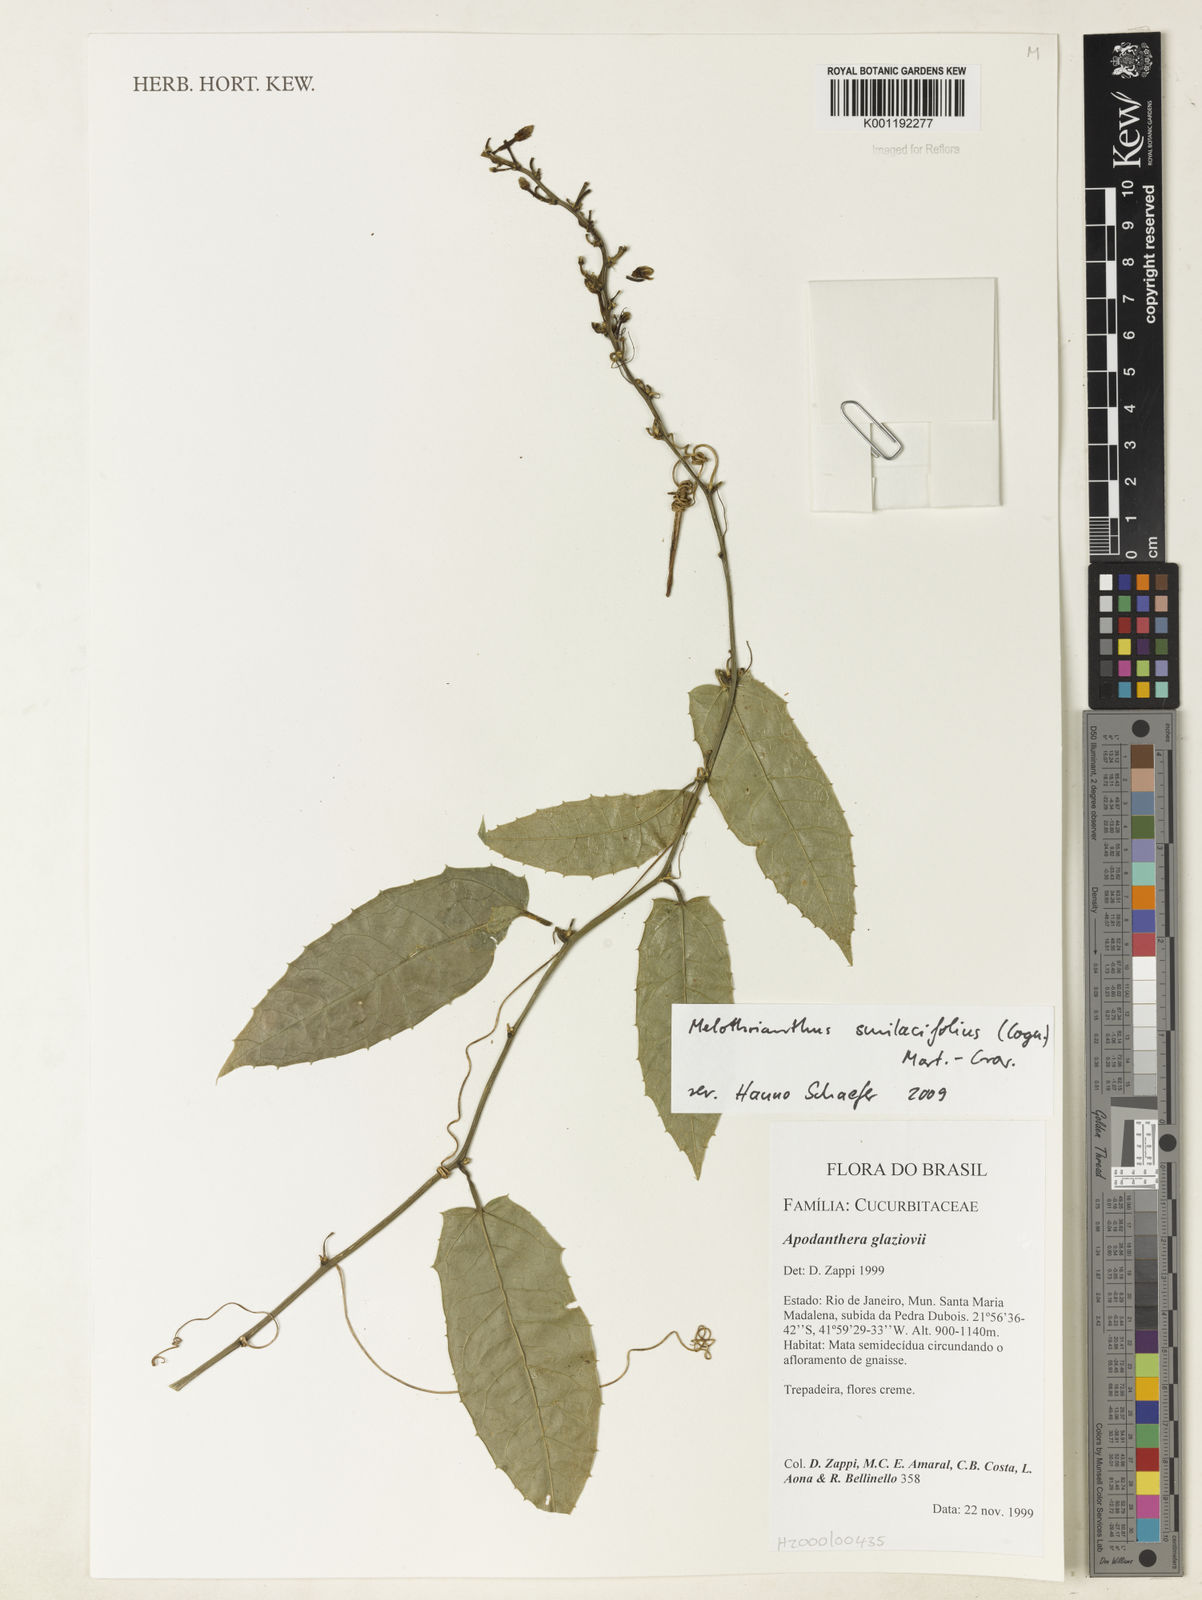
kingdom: Plantae
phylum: Tracheophyta
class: Magnoliopsida
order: Cucurbitales
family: Cucurbitaceae
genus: Apodanthera
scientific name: Apodanthera smilacifolia
